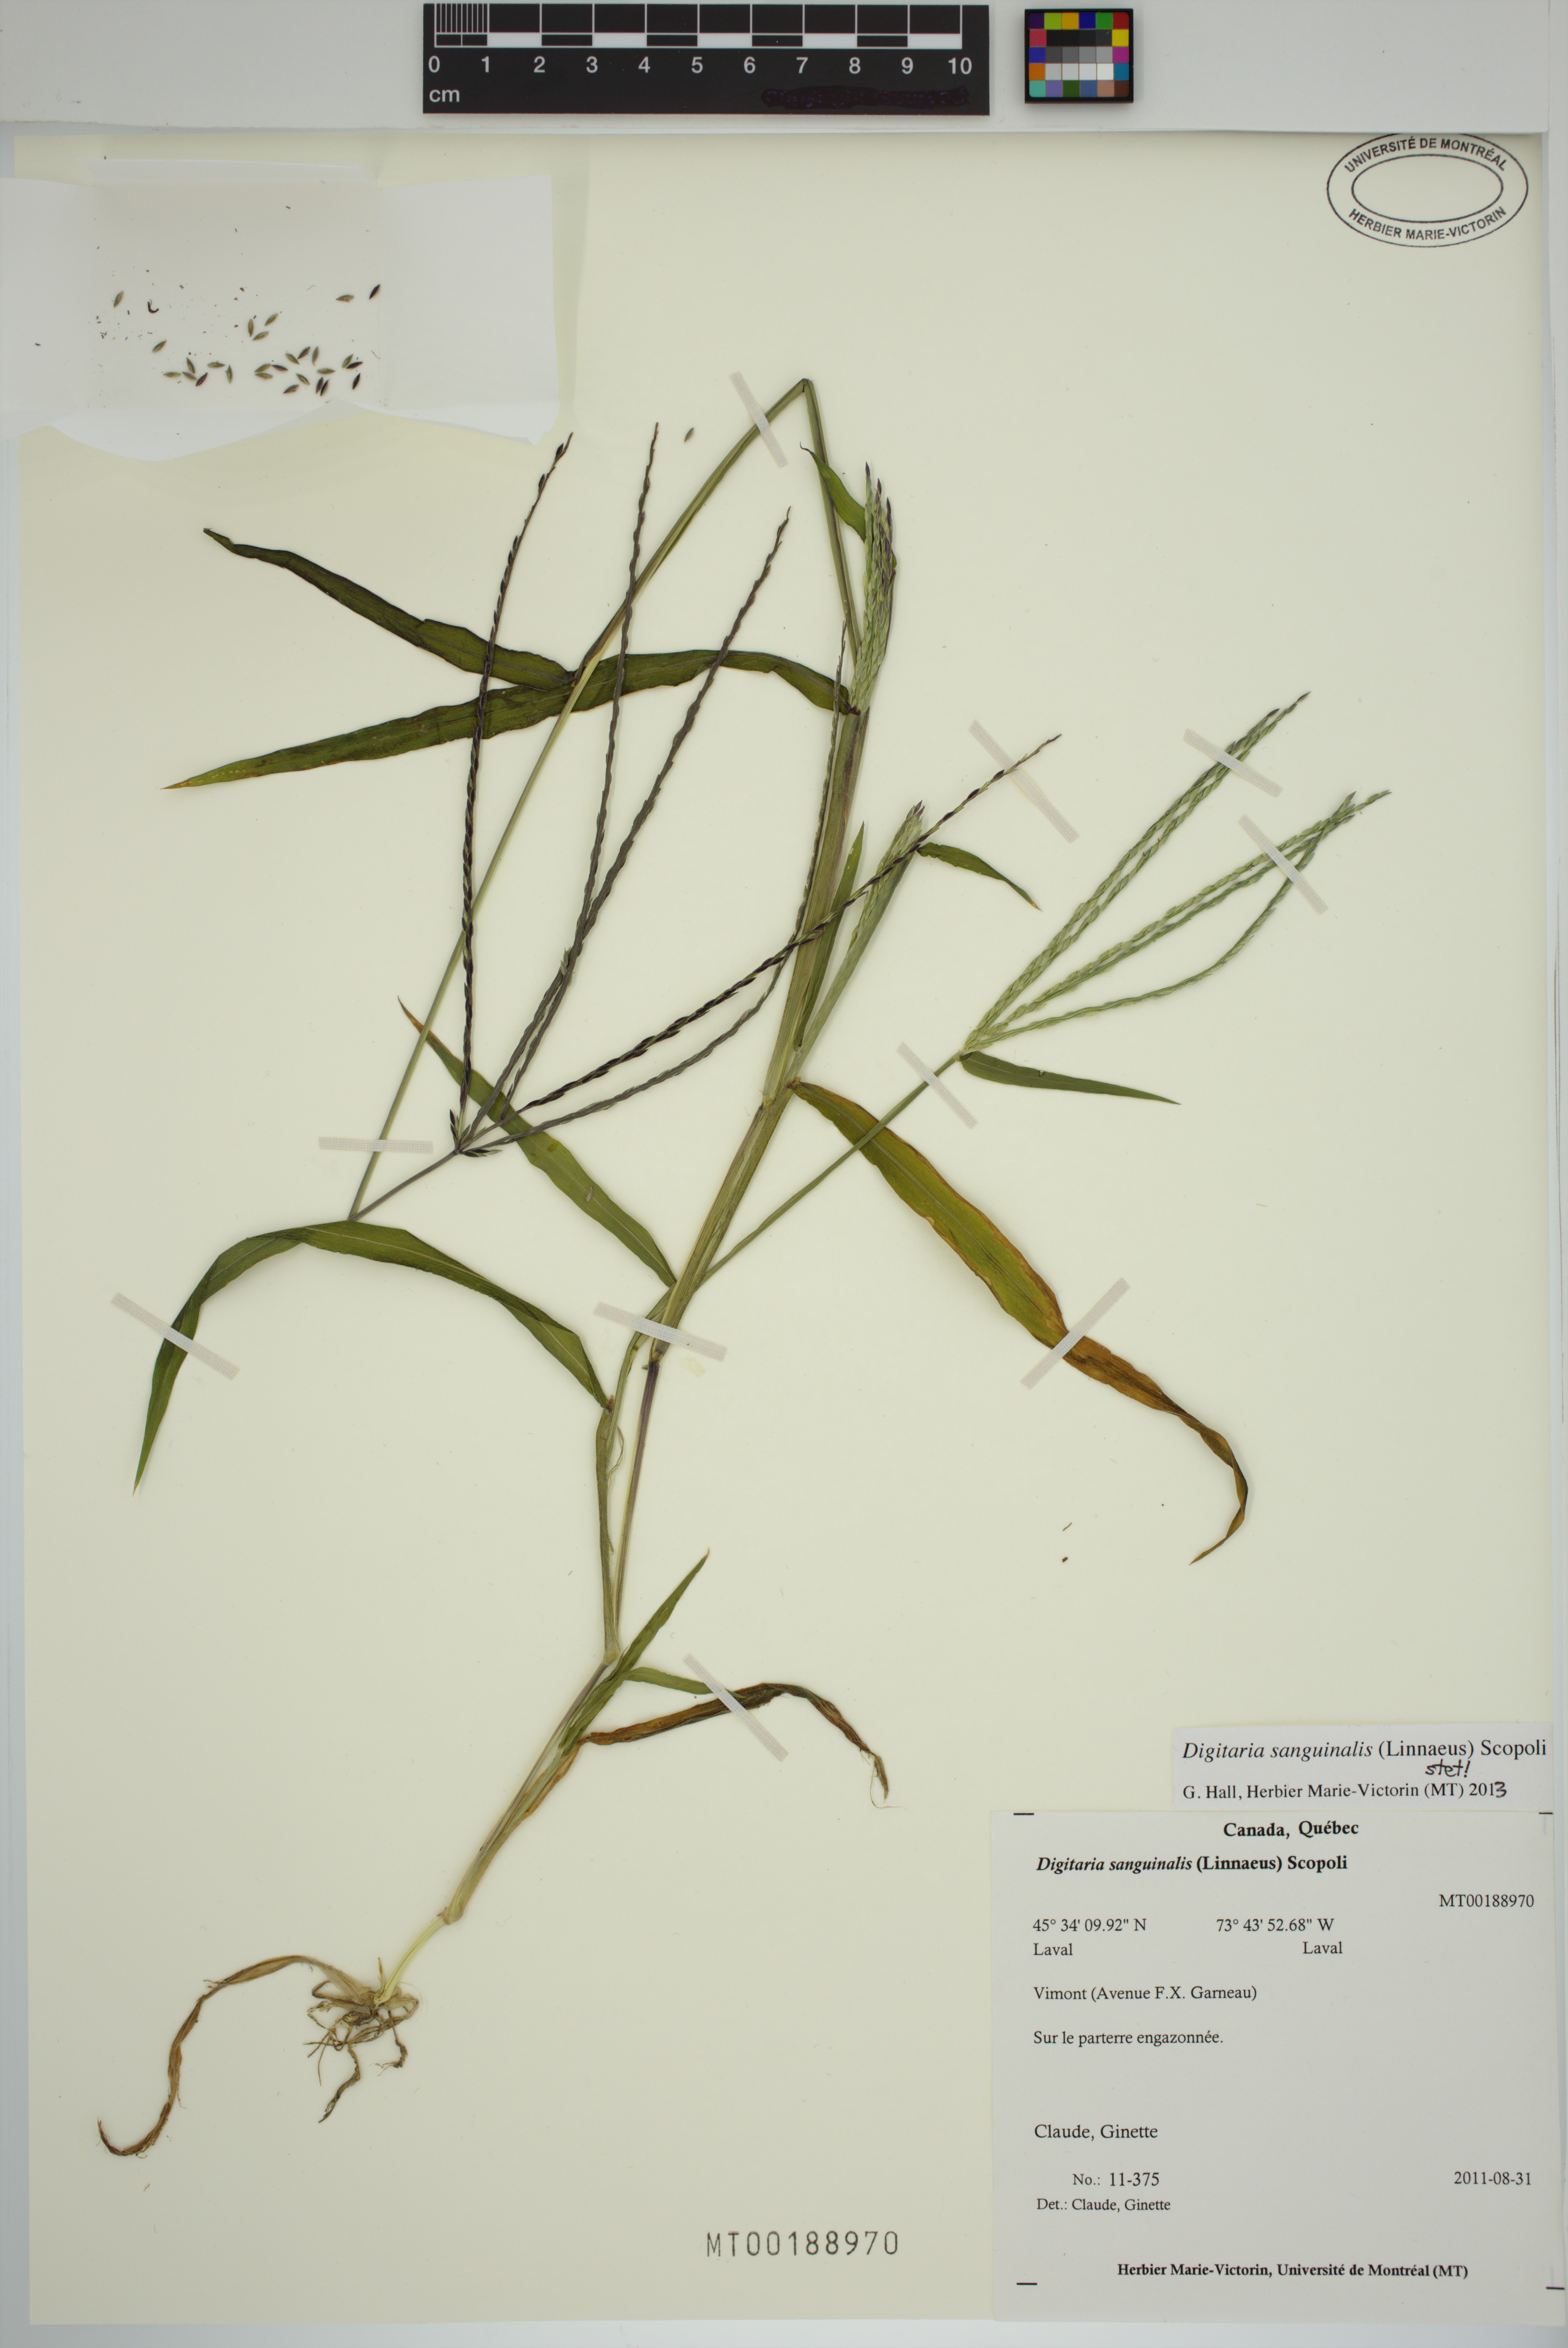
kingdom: Plantae
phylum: Tracheophyta
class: Liliopsida
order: Poales
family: Poaceae
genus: Digitaria
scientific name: Digitaria sanguinalis
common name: Hairy crabgrass
